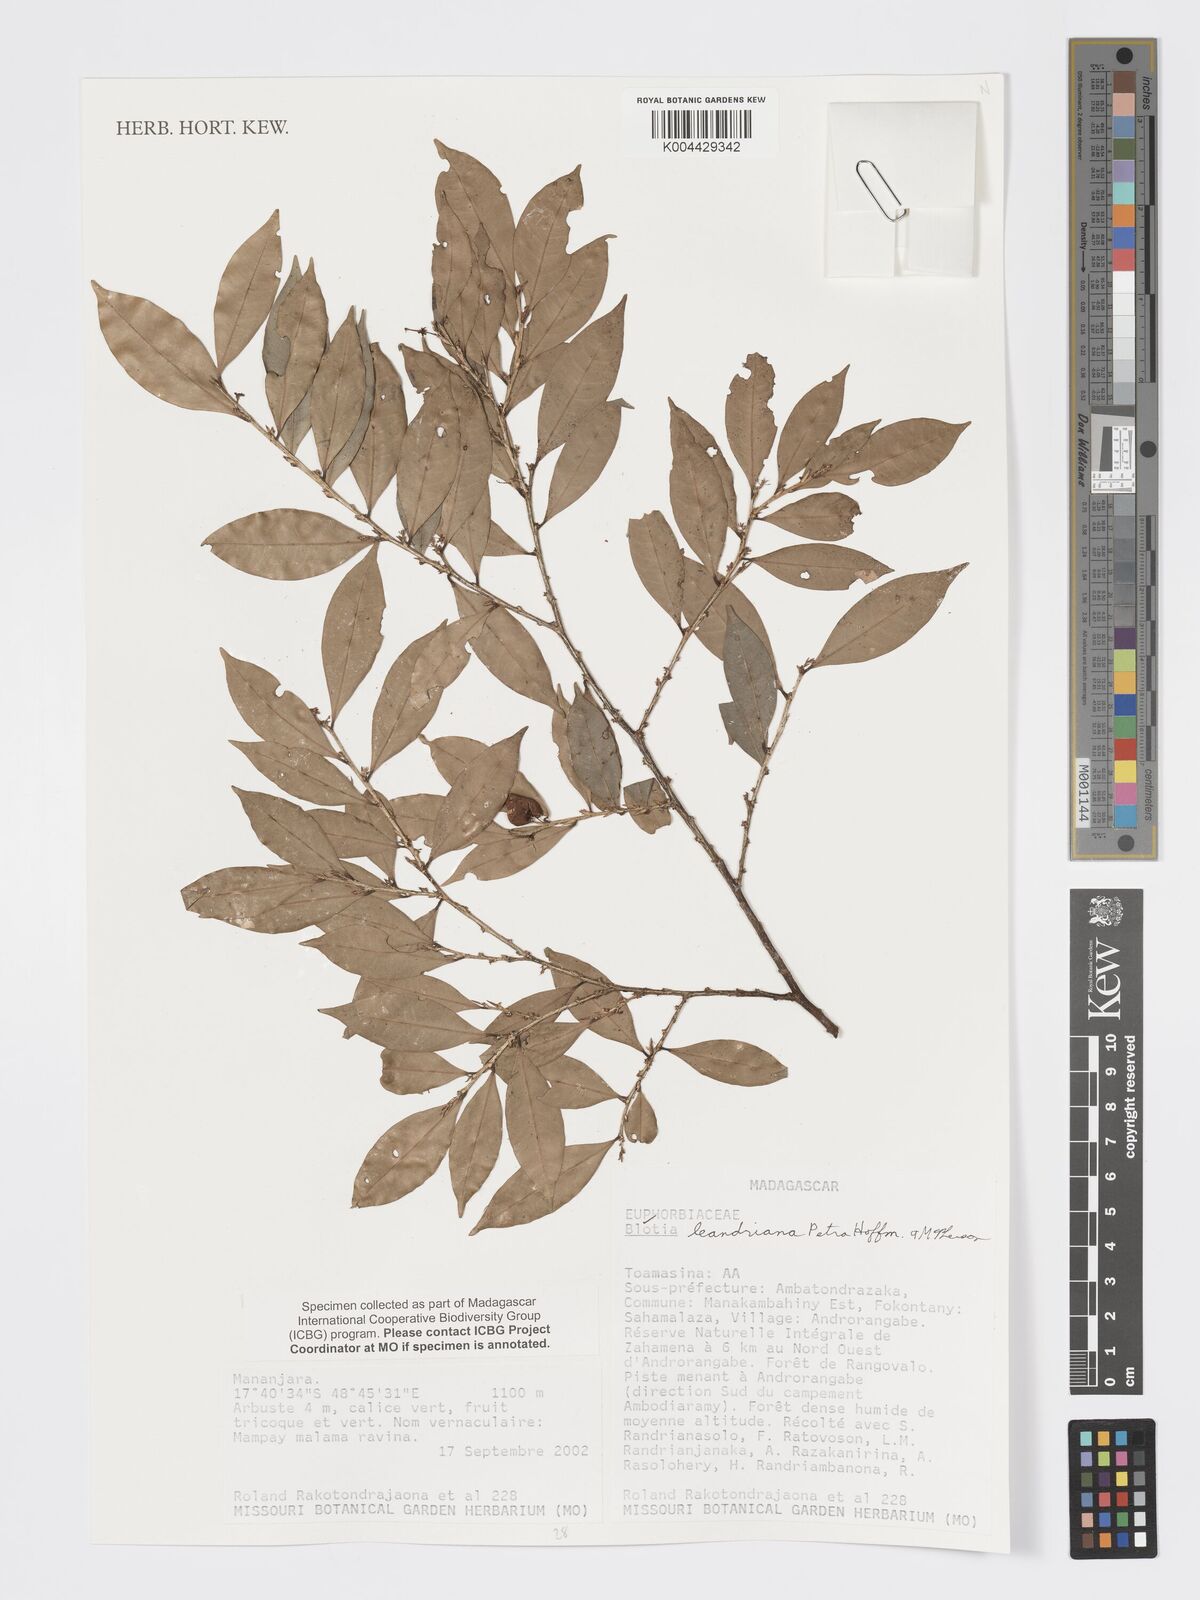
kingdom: Plantae
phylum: Tracheophyta
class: Magnoliopsida
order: Malpighiales
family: Phyllanthaceae
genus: Wielandia
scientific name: Wielandia leandriana
